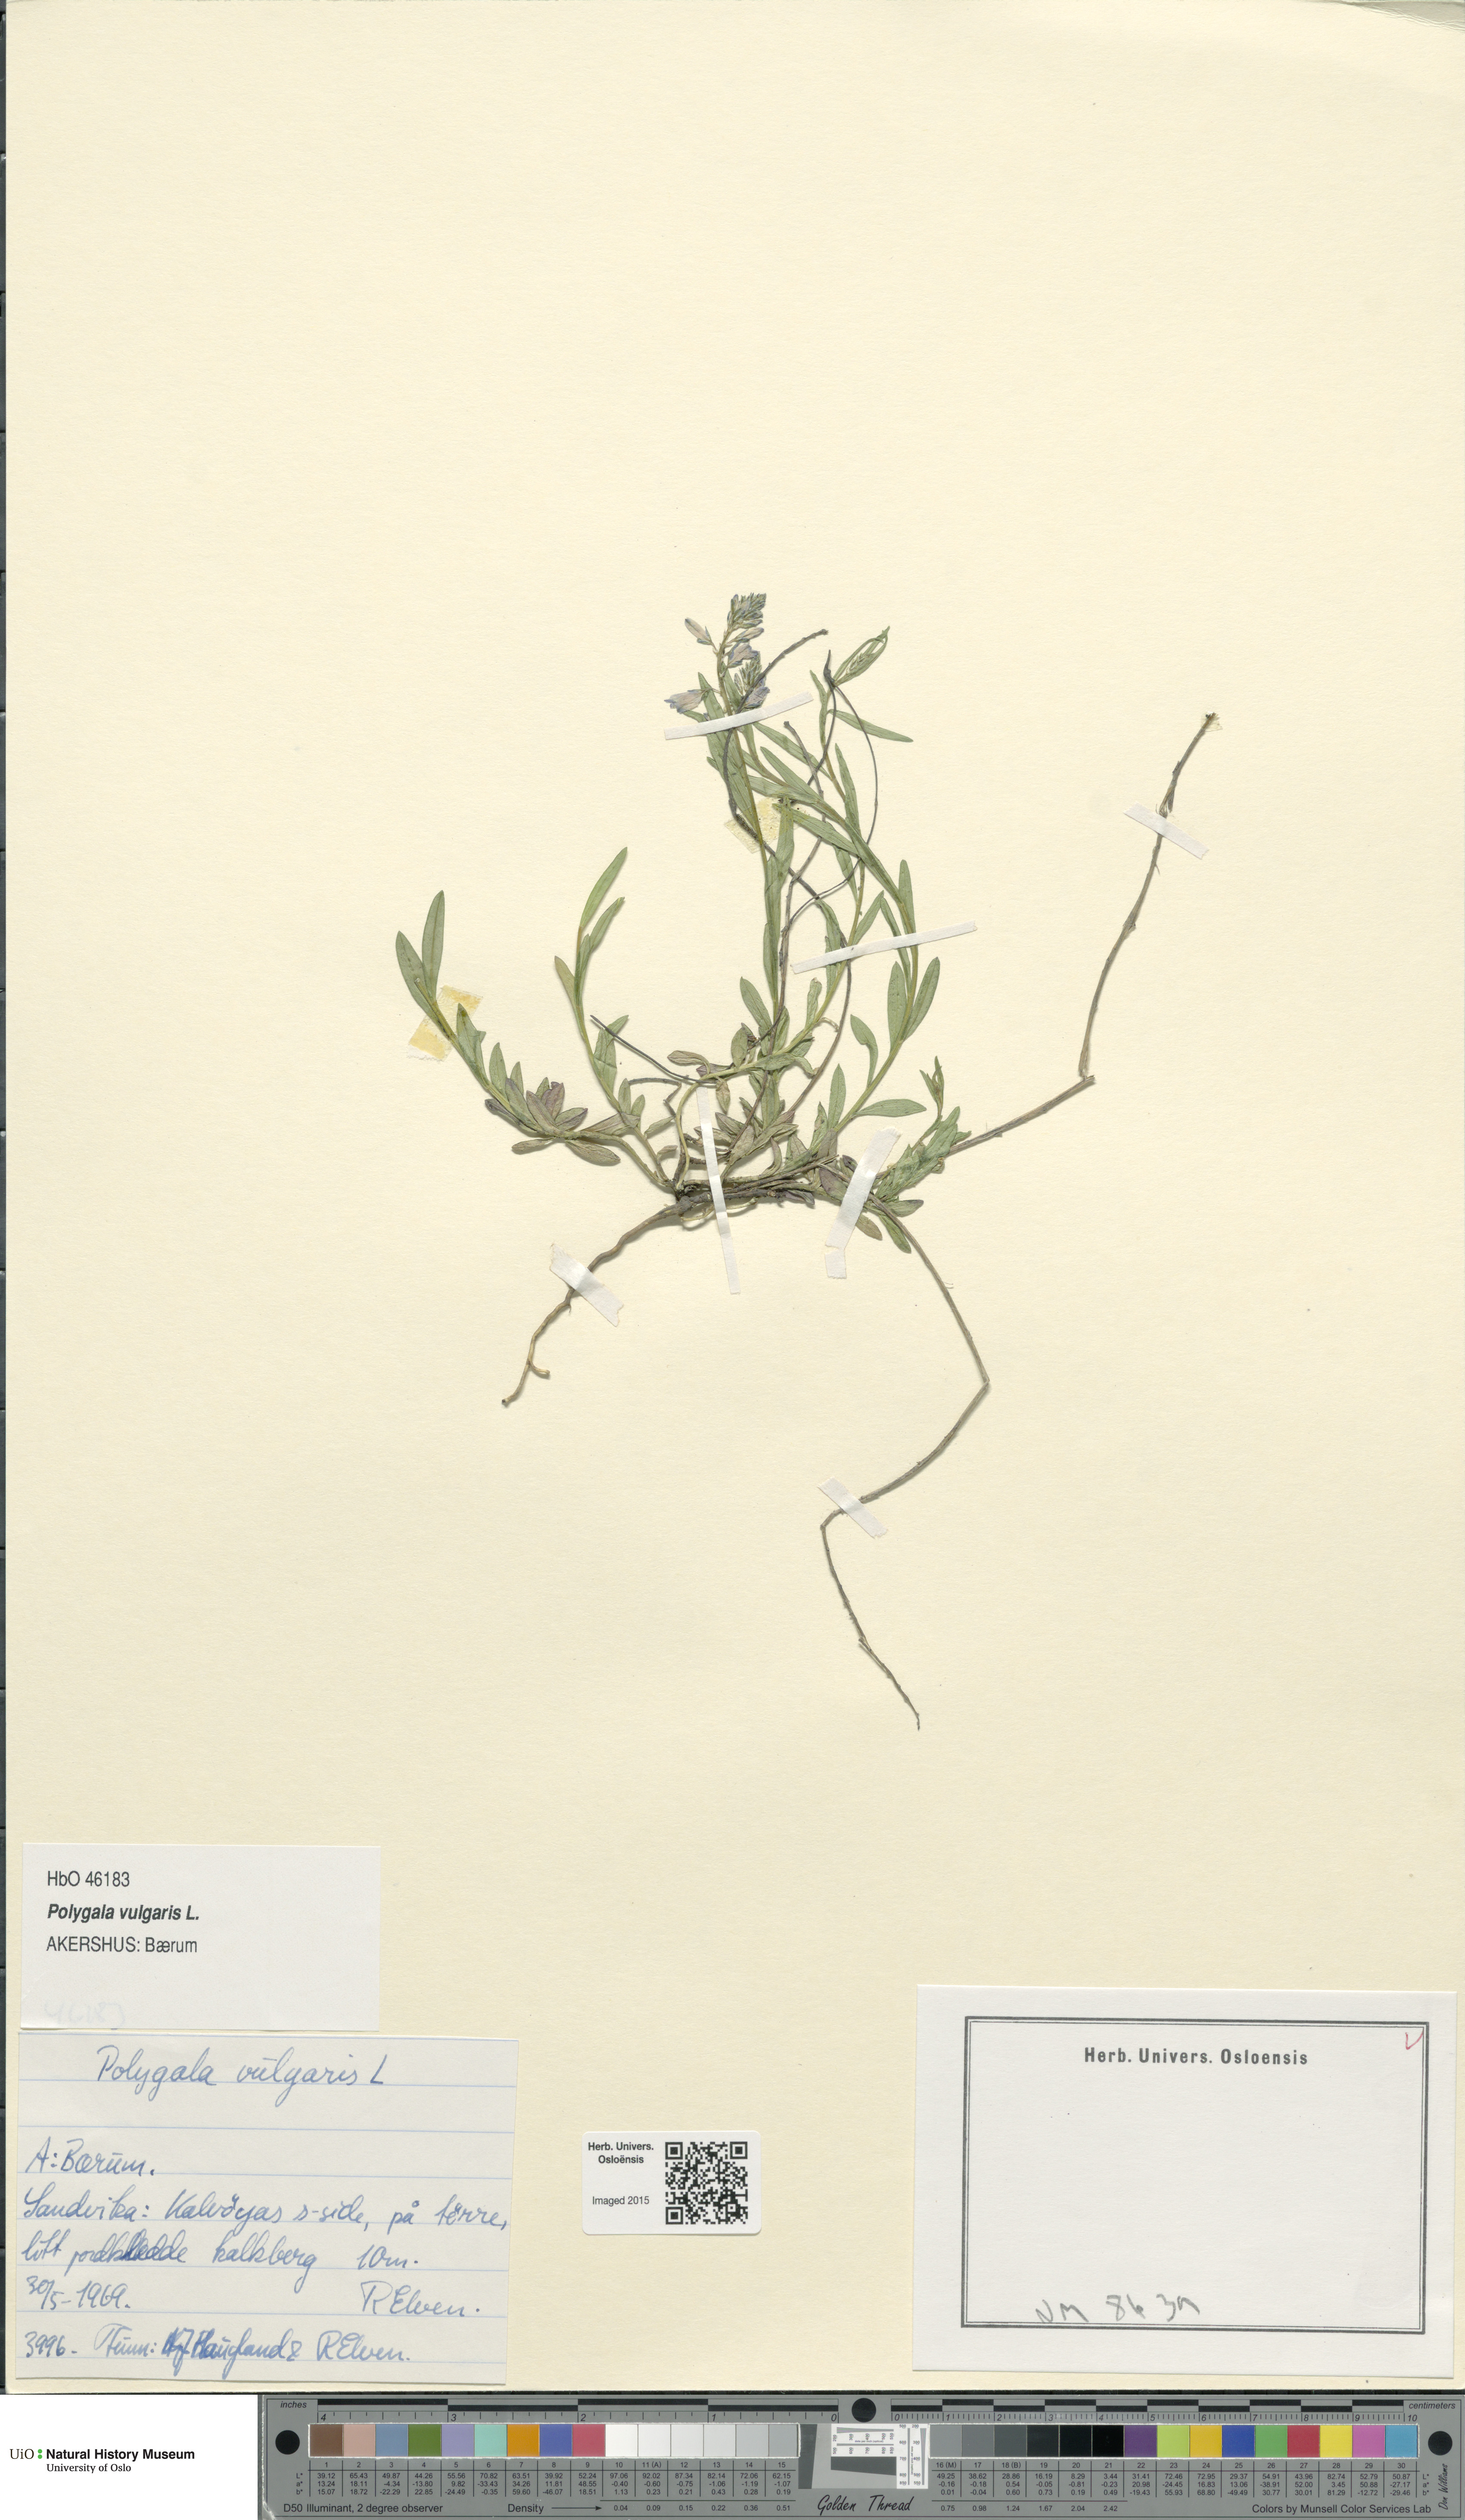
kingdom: Plantae
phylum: Tracheophyta
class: Magnoliopsida
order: Fabales
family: Polygalaceae
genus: Polygala
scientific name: Polygala vulgaris
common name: Common milkwort
